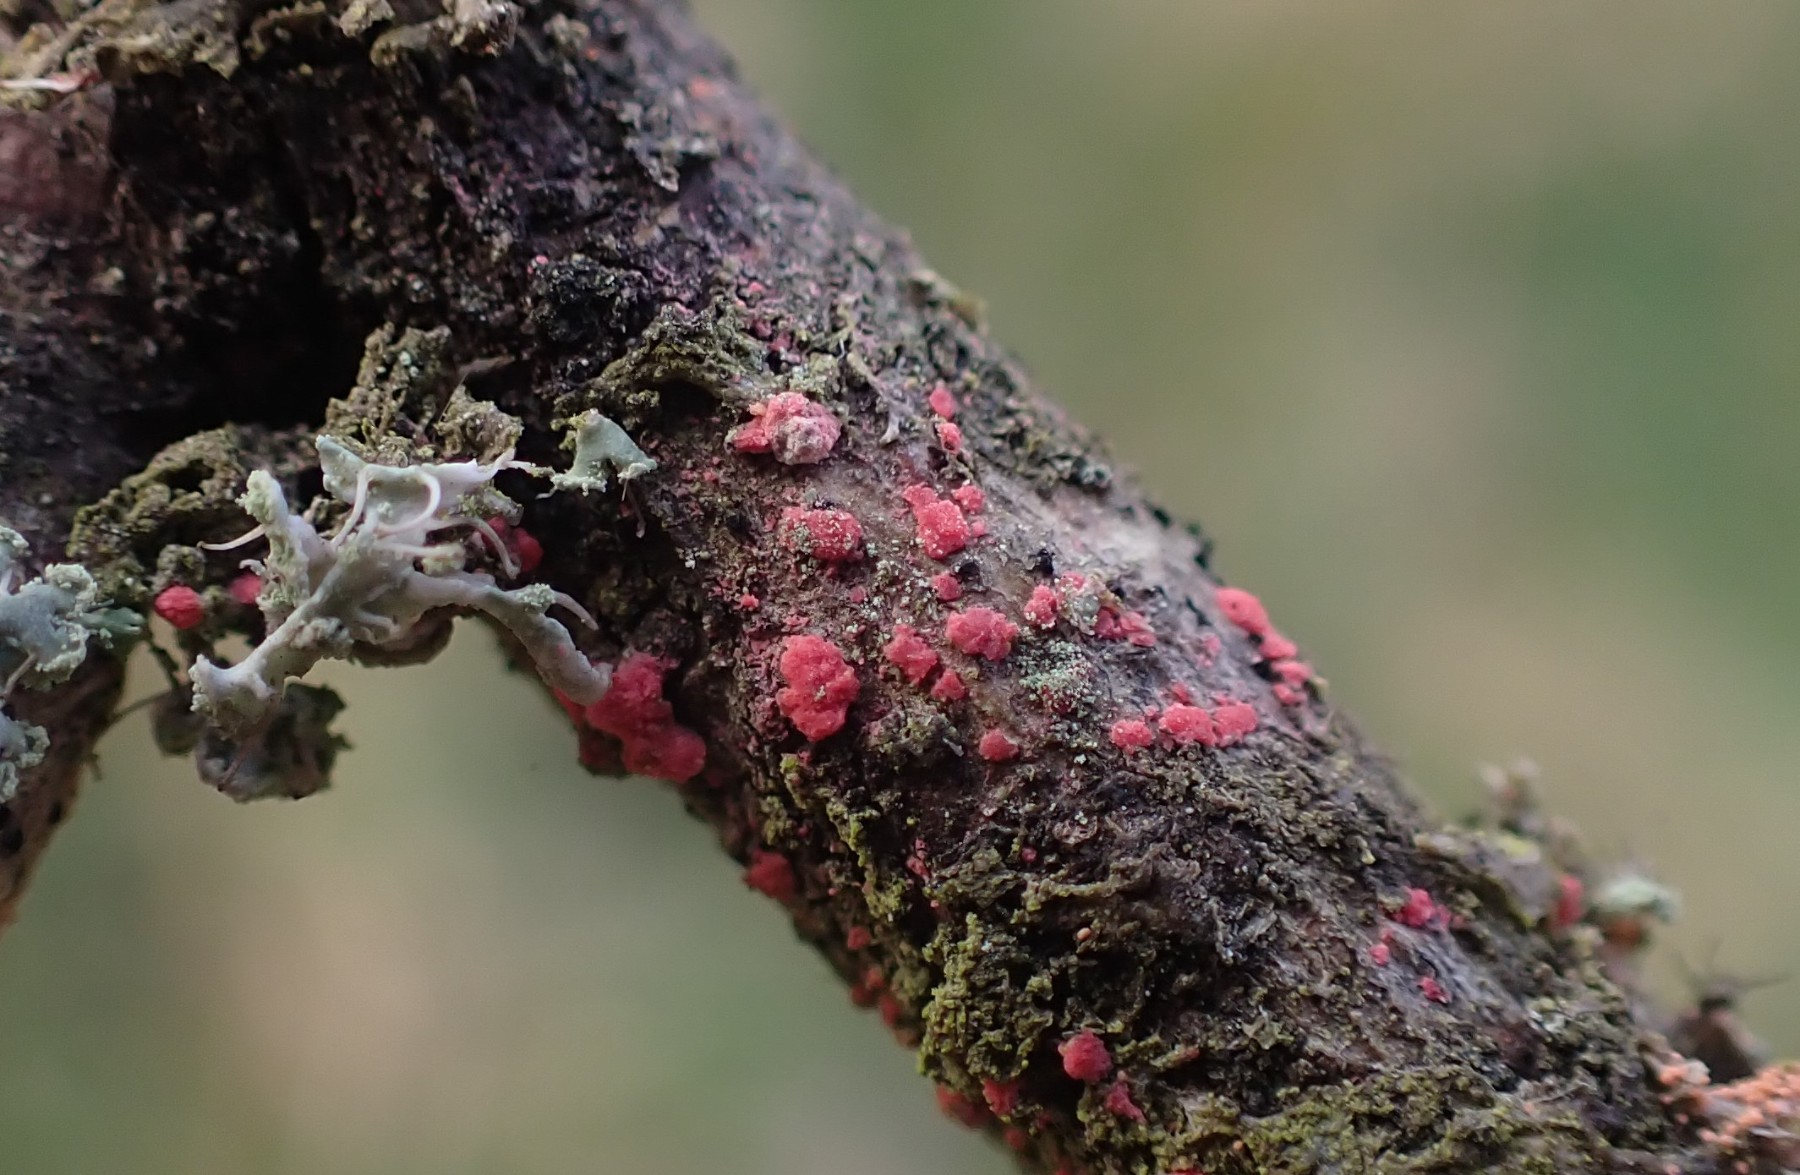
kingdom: Fungi
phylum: Ascomycota
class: Sordariomycetes
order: Hypocreales
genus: Illosporiopsis
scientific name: Illosporiopsis christiansenii
